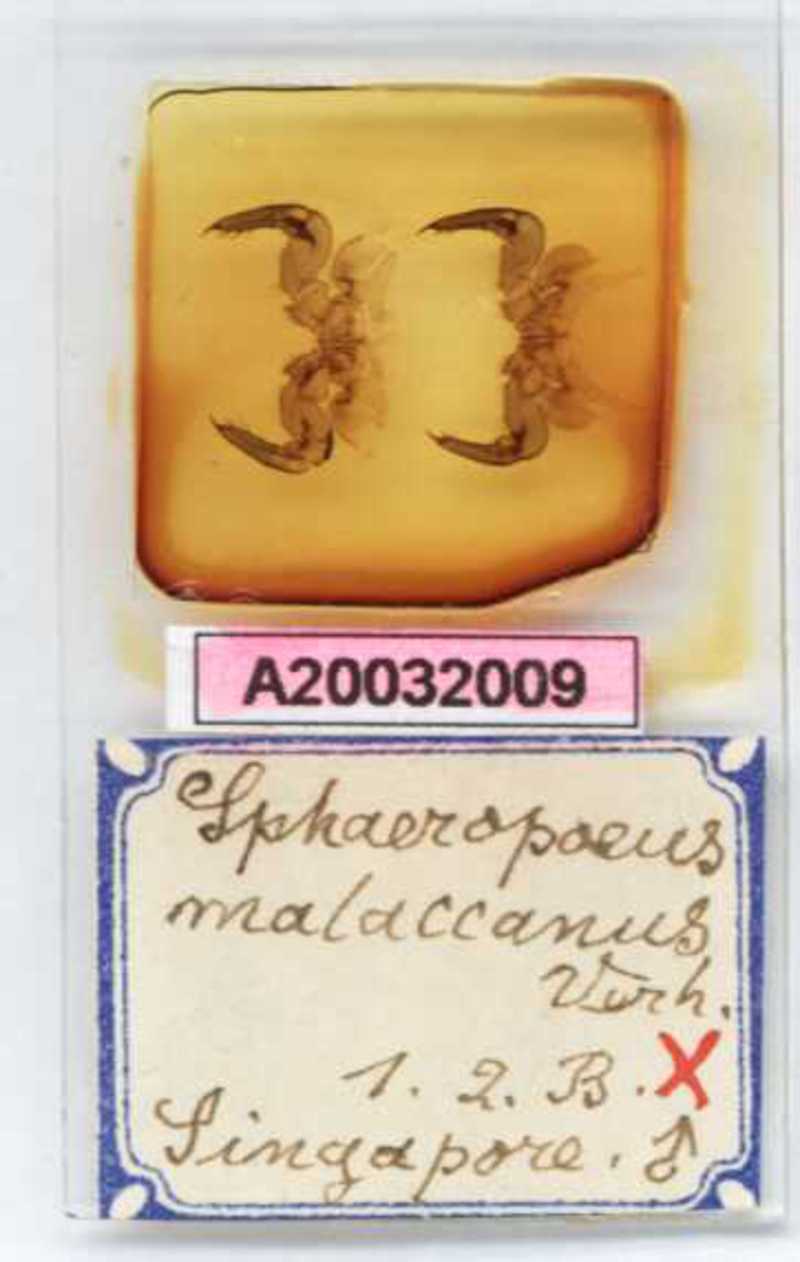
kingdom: Animalia
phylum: Arthropoda
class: Diplopoda
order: Sphaerotheriida
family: Zephroniidae
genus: Sphaeropoeus
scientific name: Sphaeropoeus malaccanus
